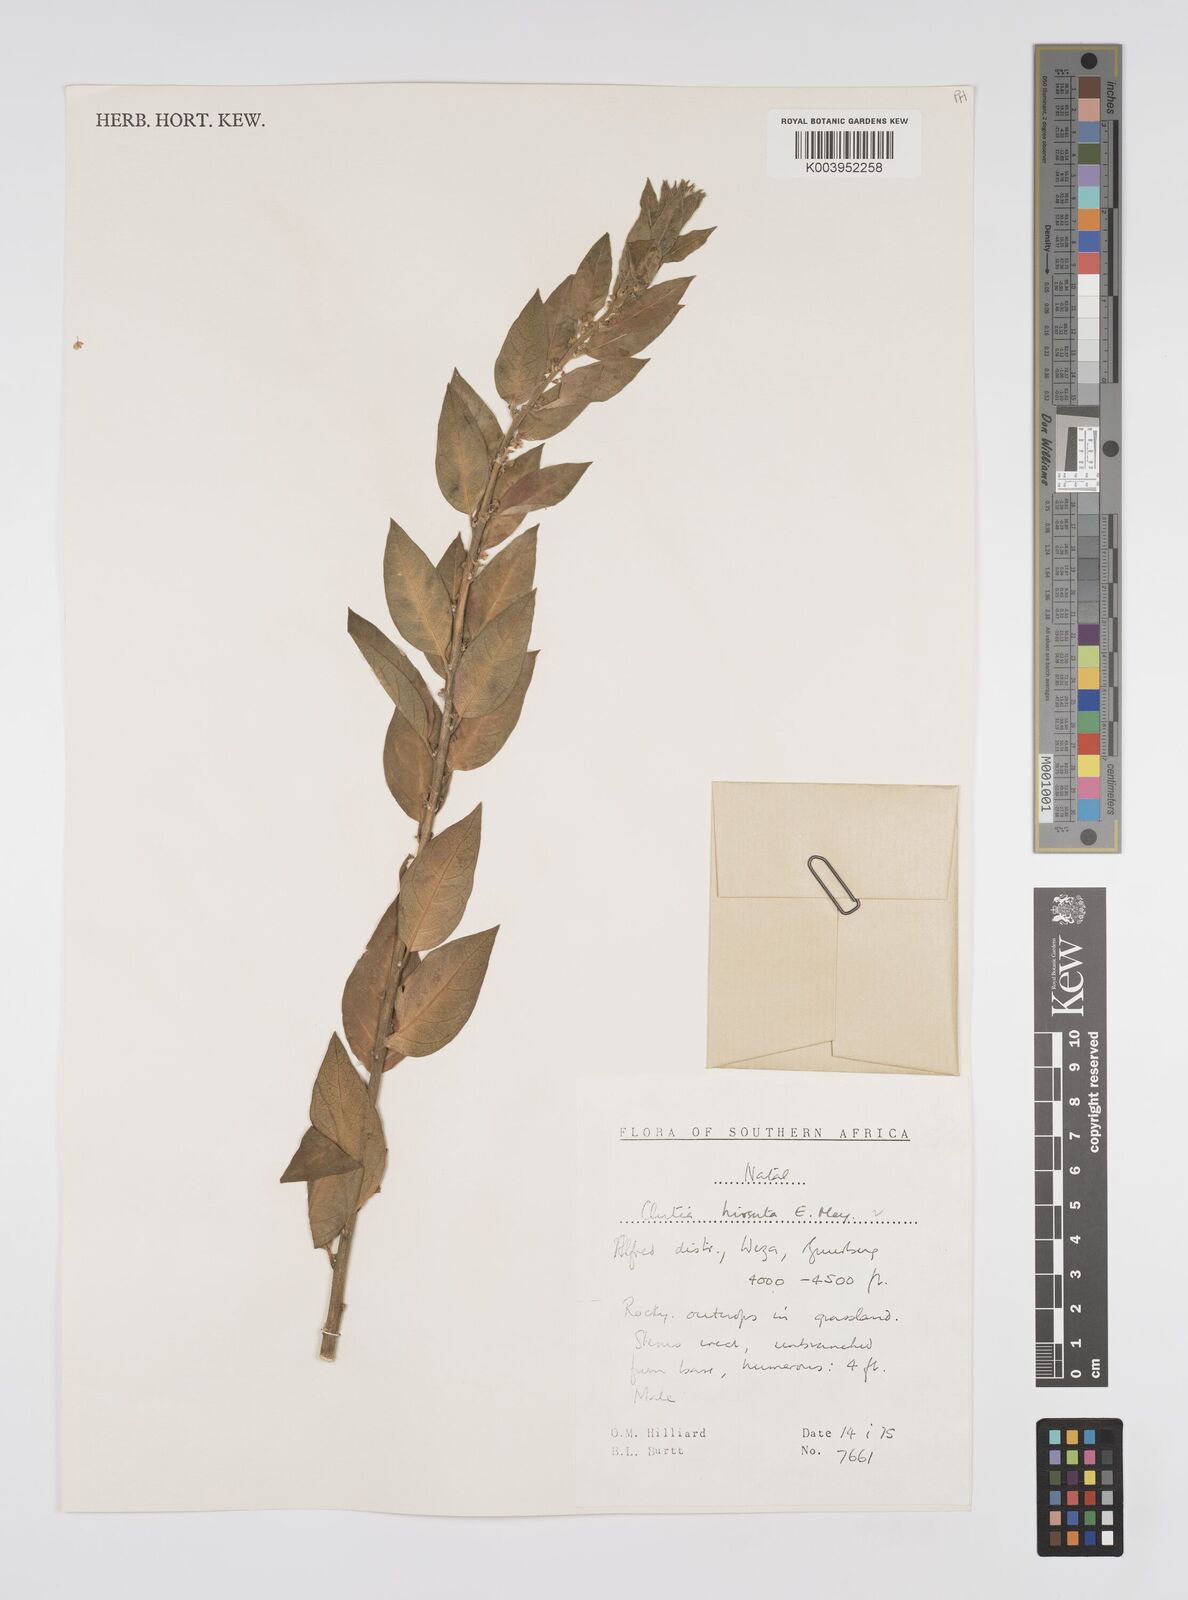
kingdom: Plantae
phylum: Tracheophyta
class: Magnoliopsida
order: Malpighiales
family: Peraceae
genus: Clutia
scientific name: Clutia affinis
